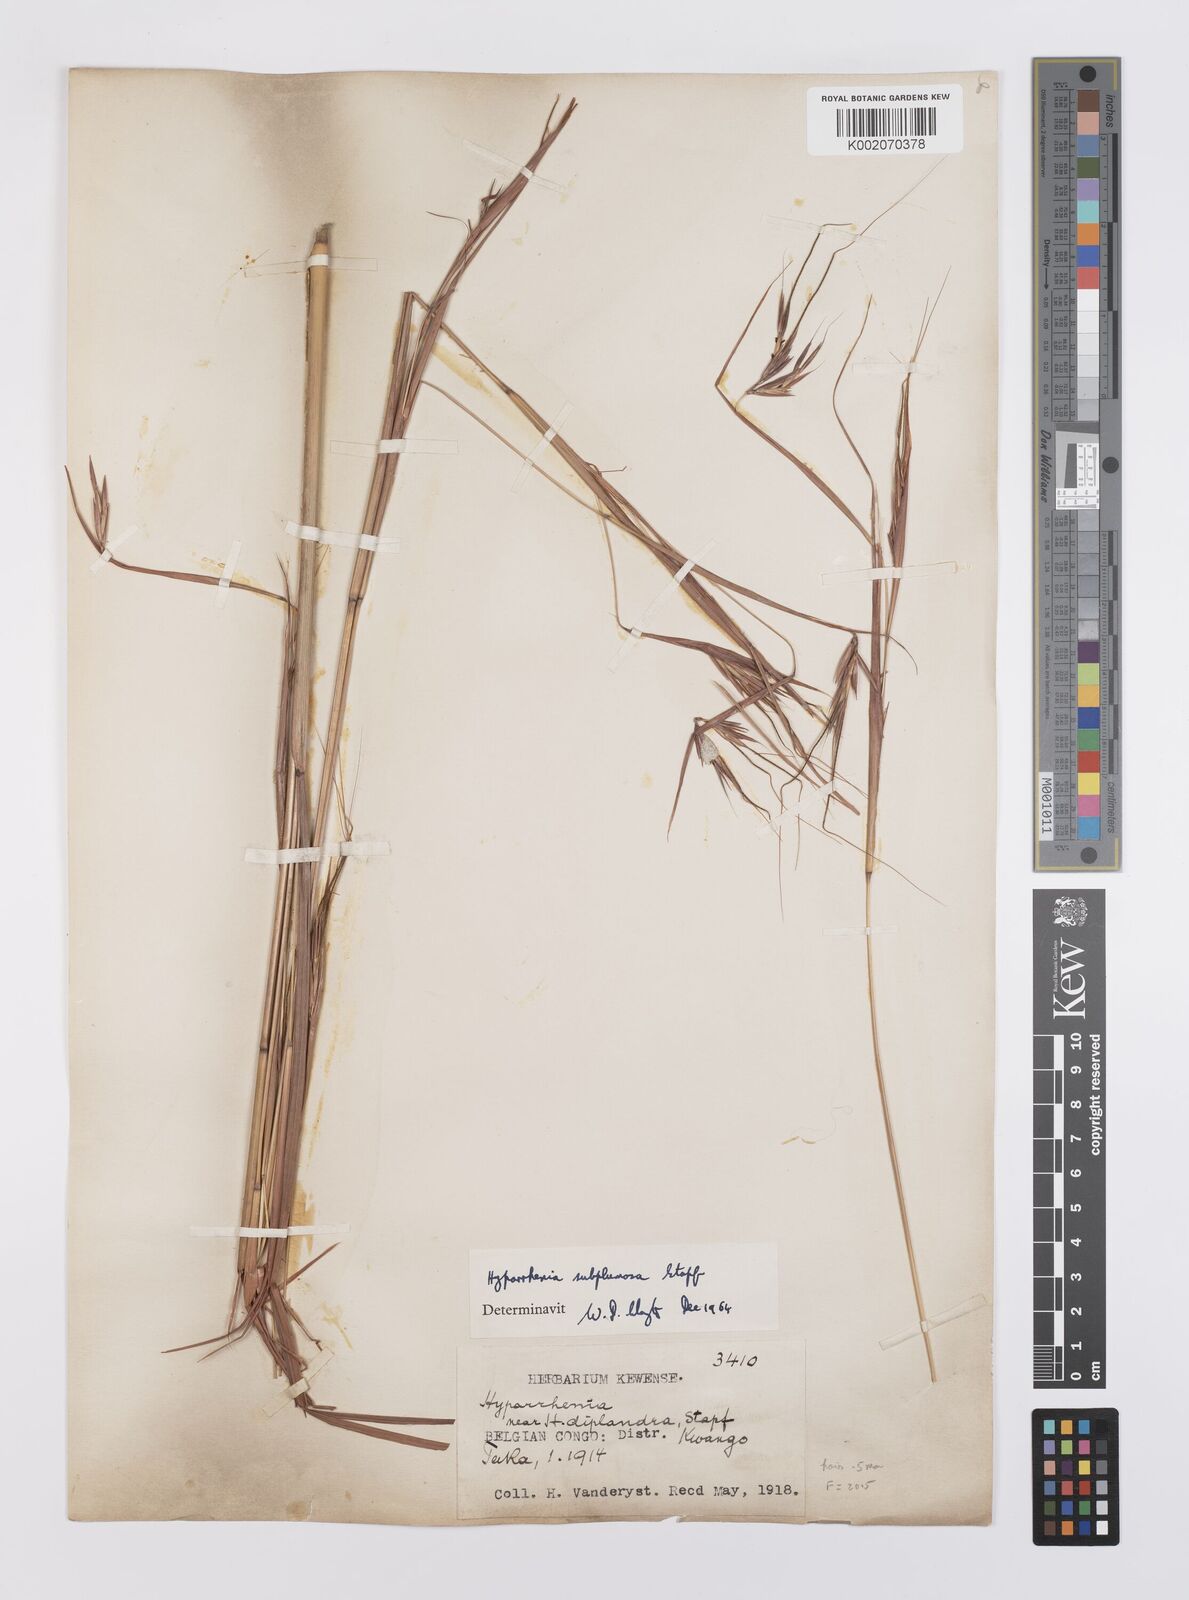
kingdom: Plantae
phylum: Tracheophyta
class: Liliopsida
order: Poales
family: Poaceae
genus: Hyparrhenia
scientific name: Hyparrhenia subplumosa
